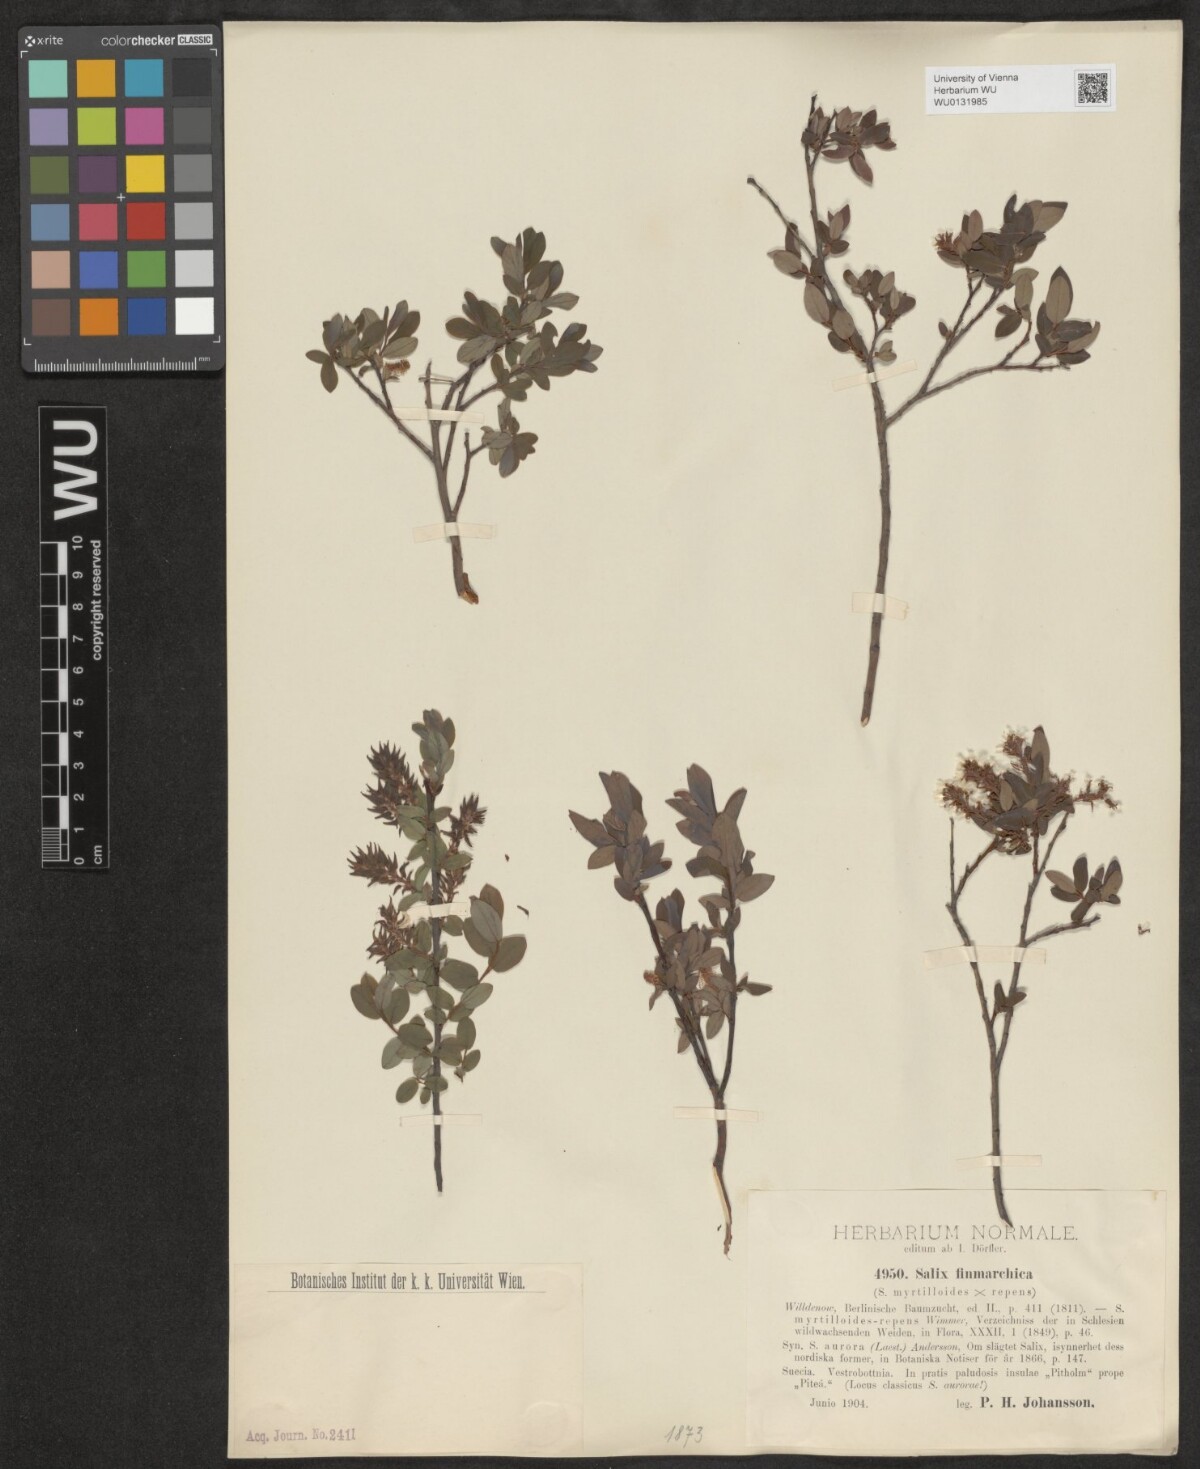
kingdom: Plantae
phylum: Tracheophyta
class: Magnoliopsida
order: Malpighiales
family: Salicaceae
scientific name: Salicaceae
